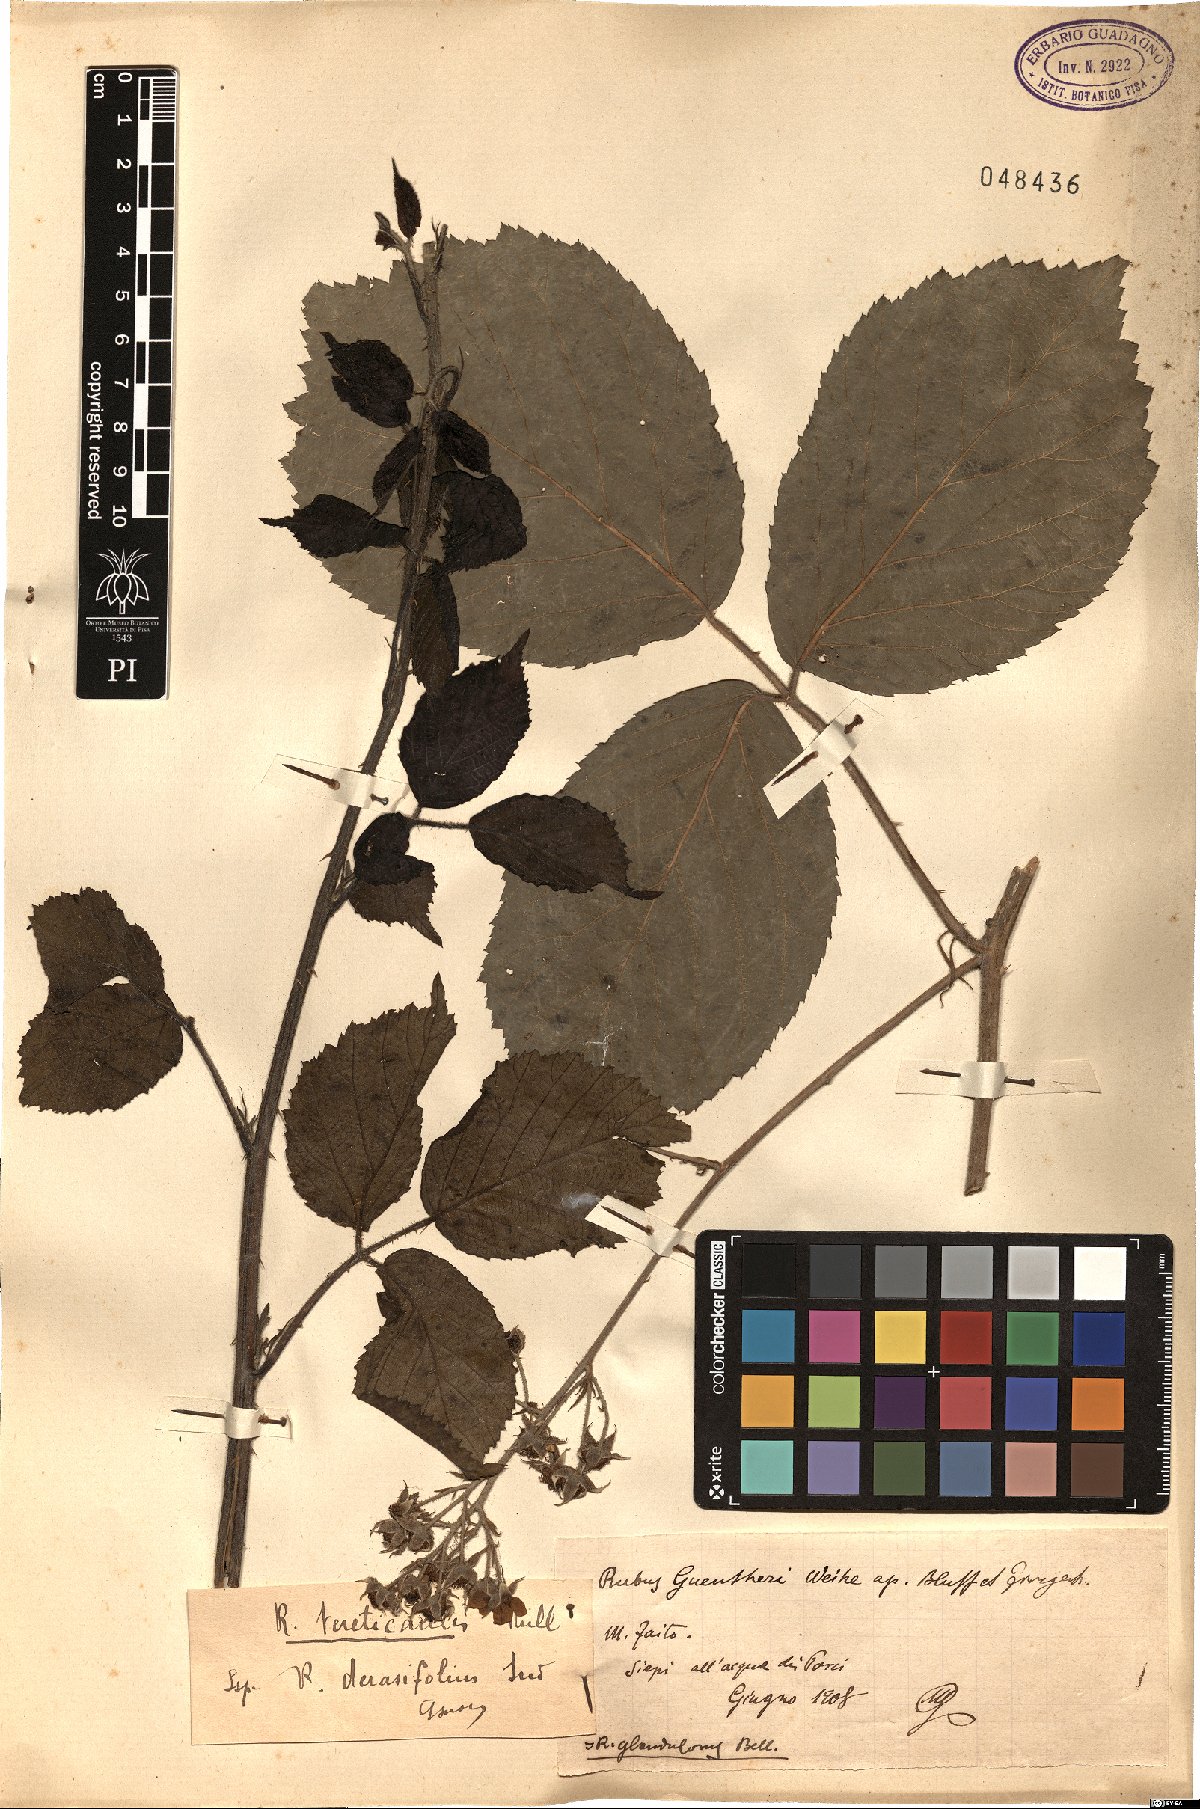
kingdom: Plantae
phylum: Tracheophyta
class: Magnoliopsida
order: Rosales
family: Rosaceae
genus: Rubus
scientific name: Rubus tereticaulis
